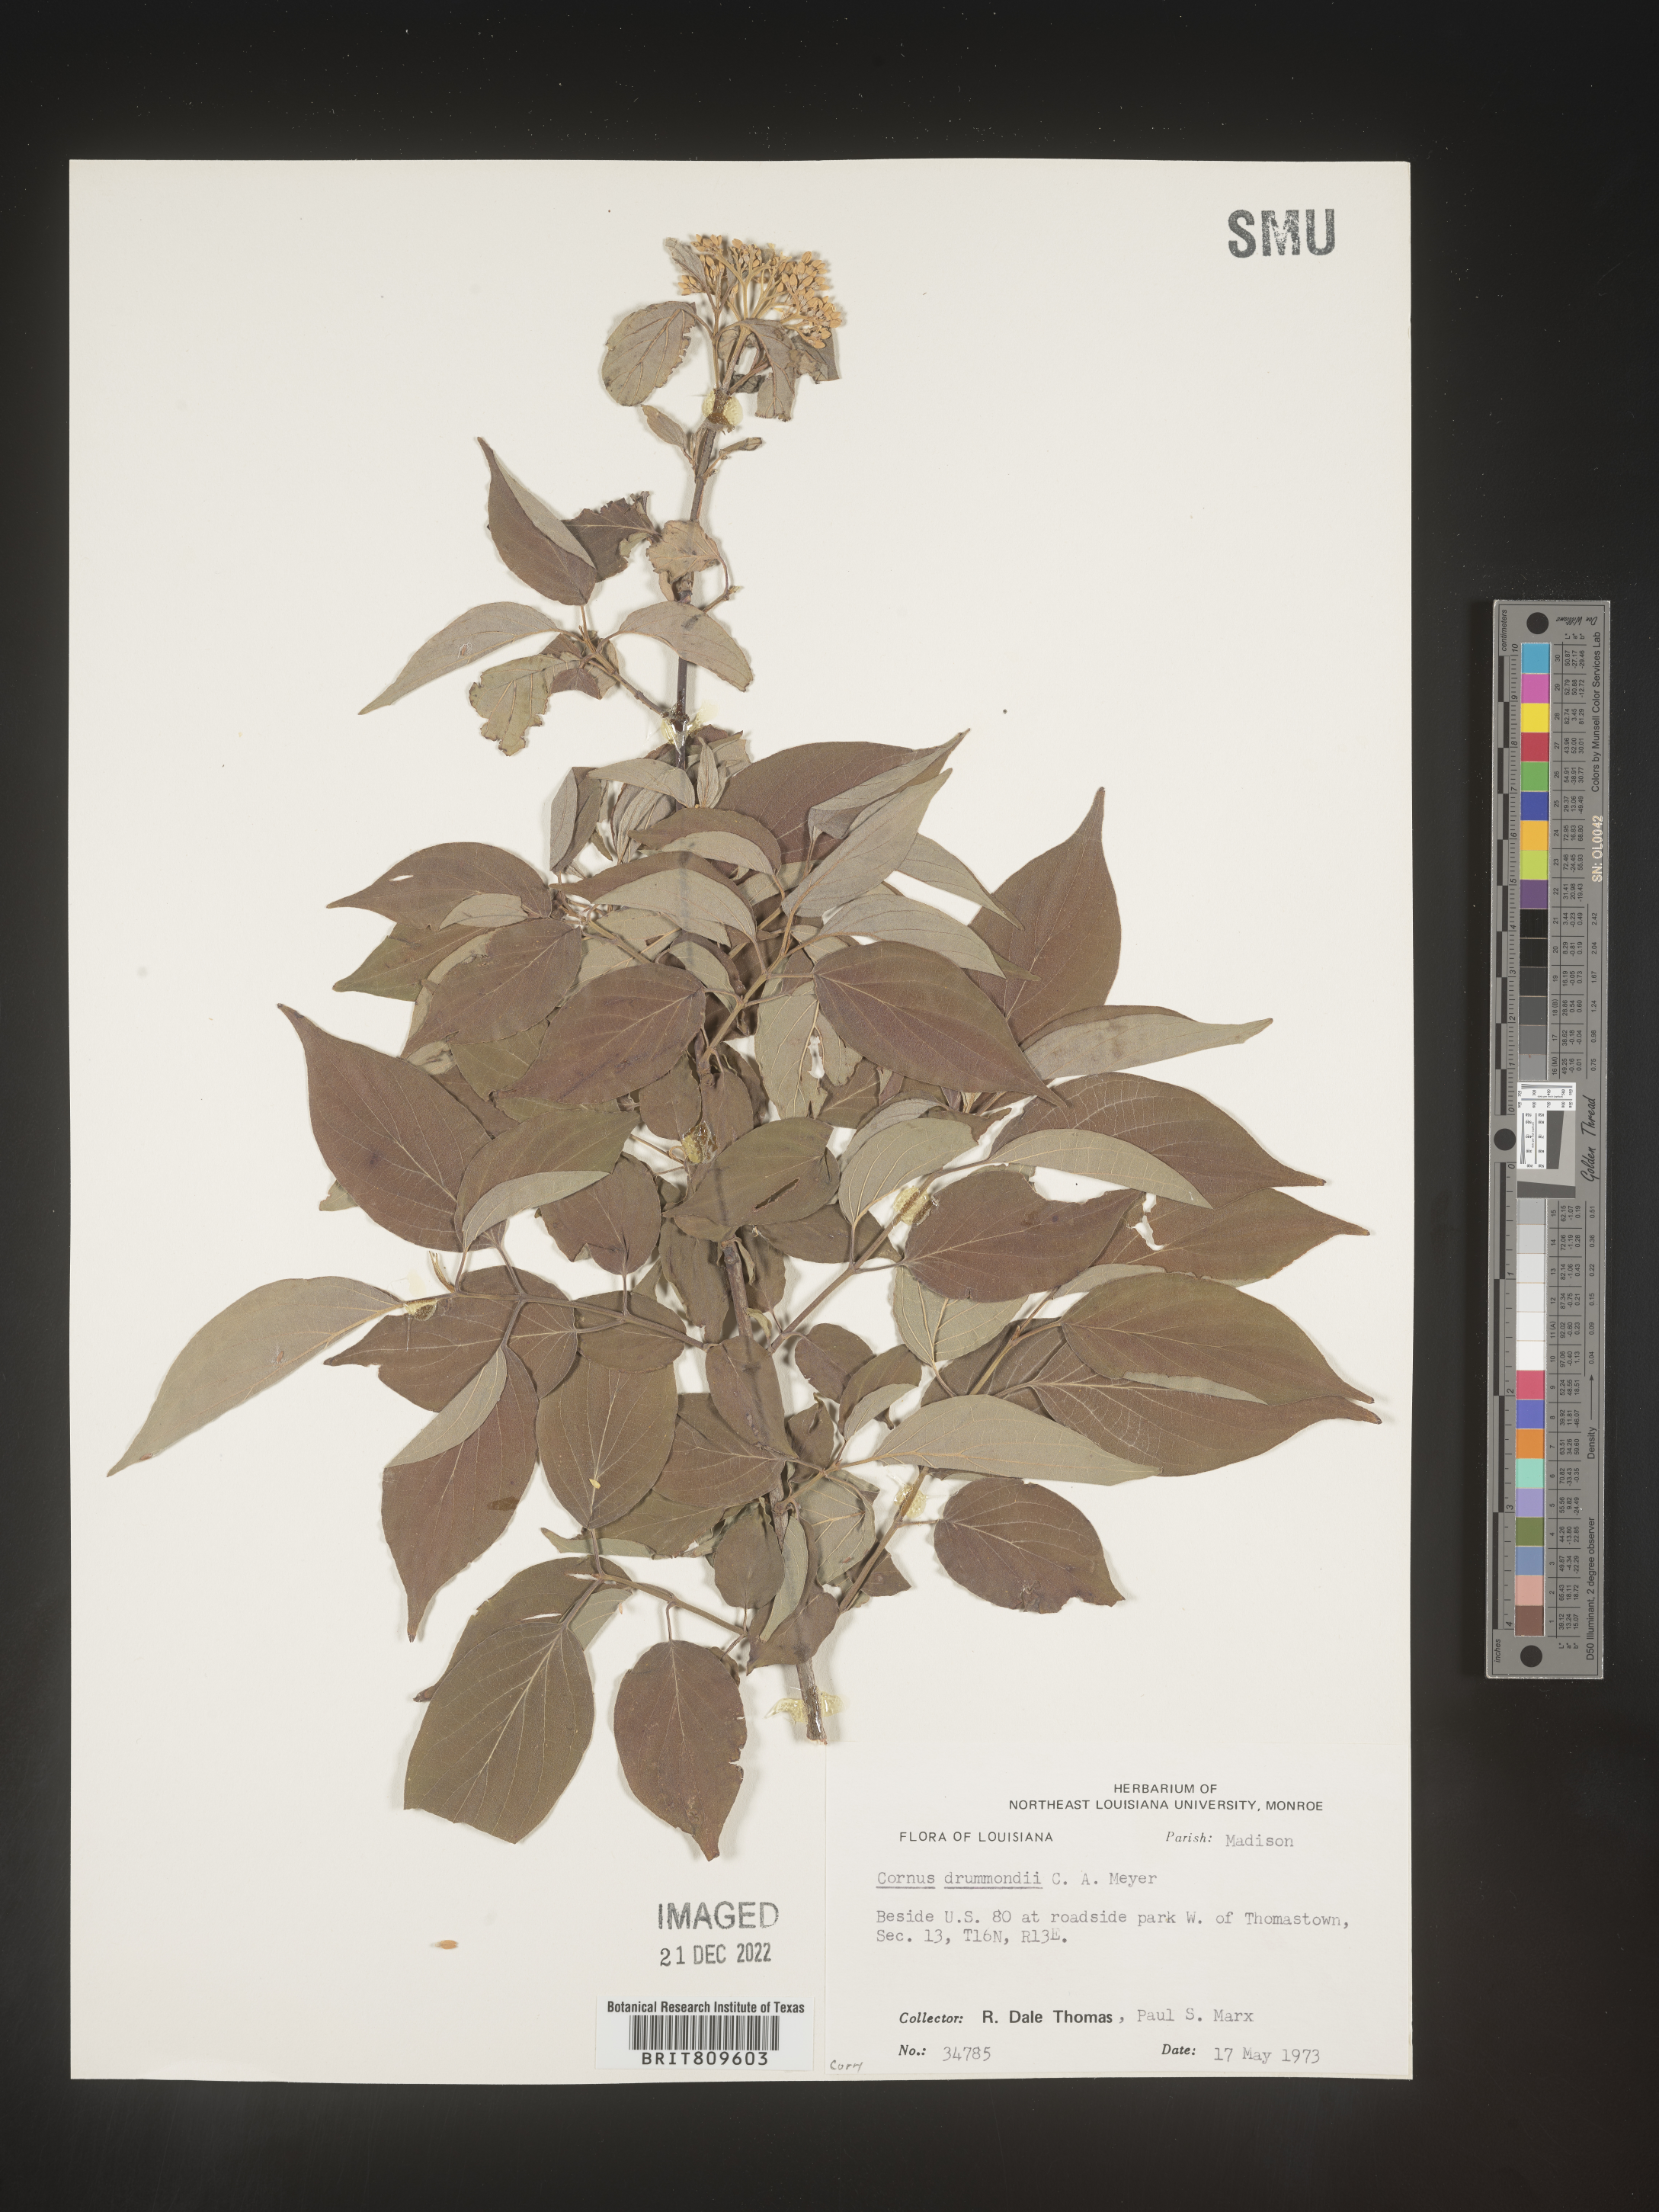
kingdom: Plantae
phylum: Tracheophyta
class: Magnoliopsida
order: Cornales
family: Cornaceae
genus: Cornus
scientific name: Cornus drummondii
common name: Rough-leaf dogwood
